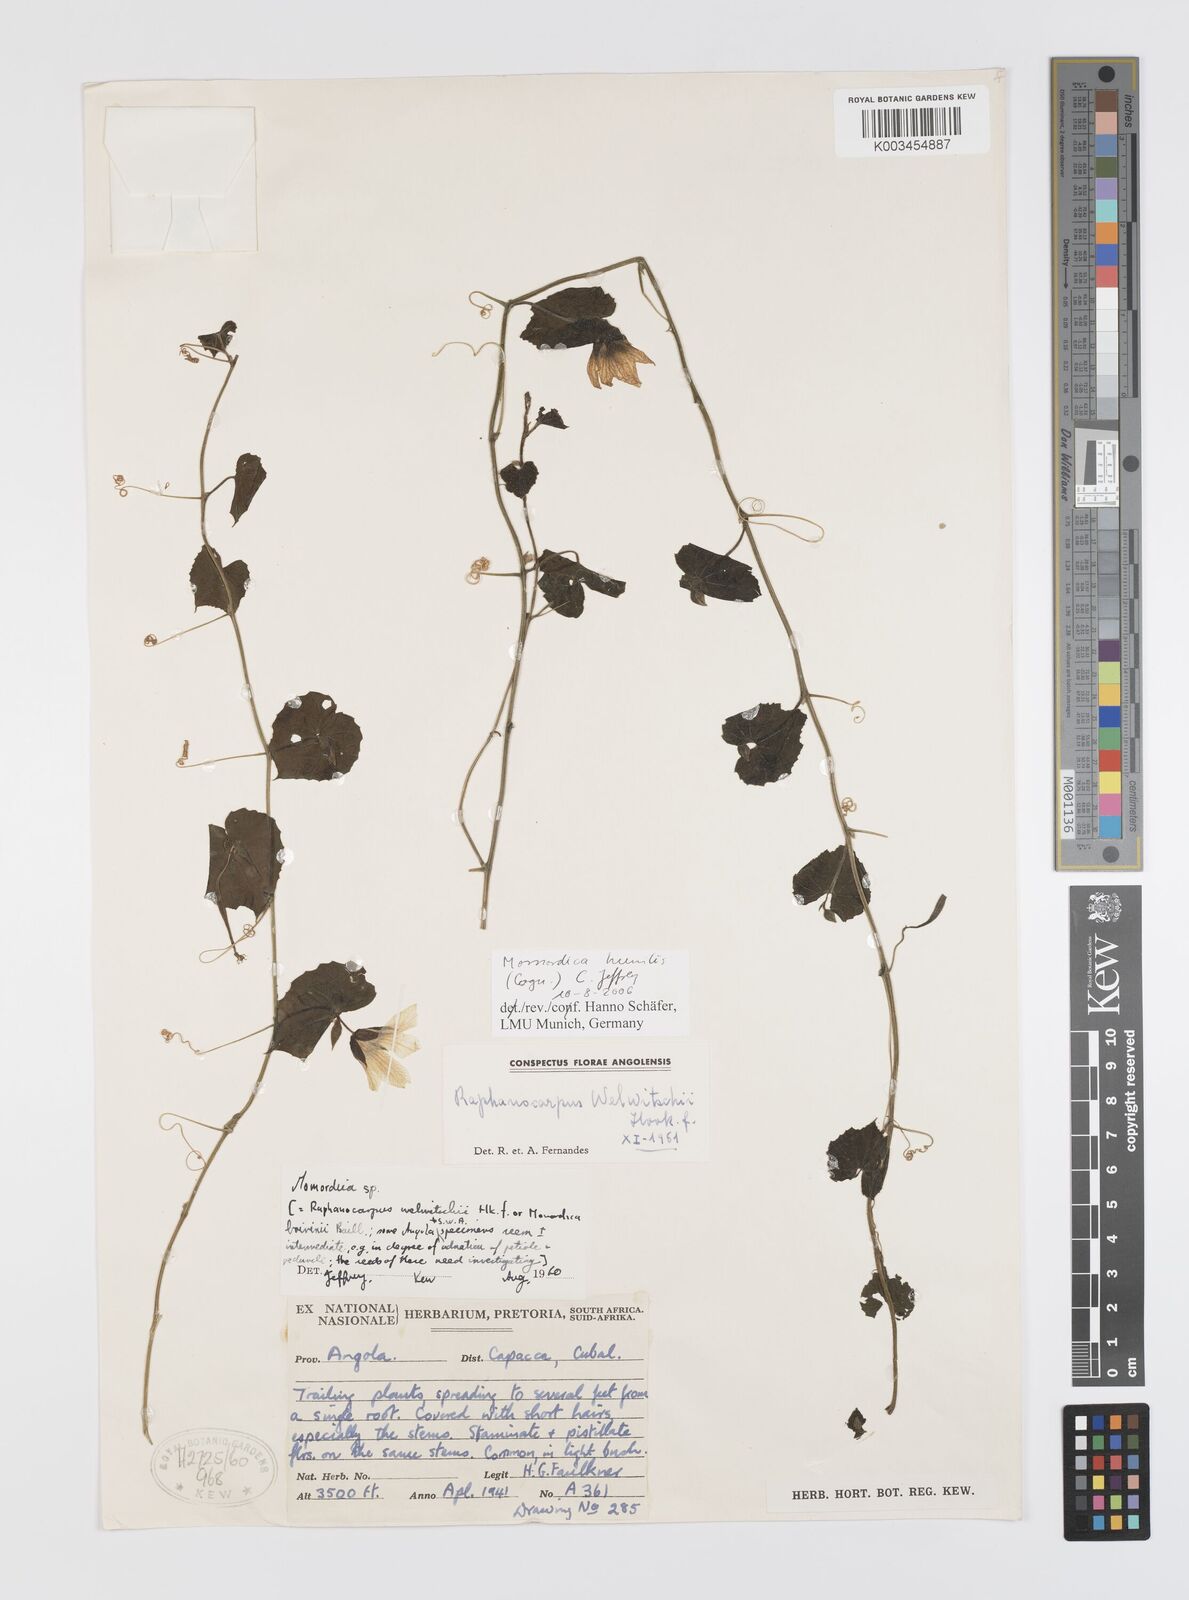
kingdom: Plantae
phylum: Tracheophyta
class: Magnoliopsida
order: Cucurbitales
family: Cucurbitaceae
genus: Momordica
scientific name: Momordica humilis
